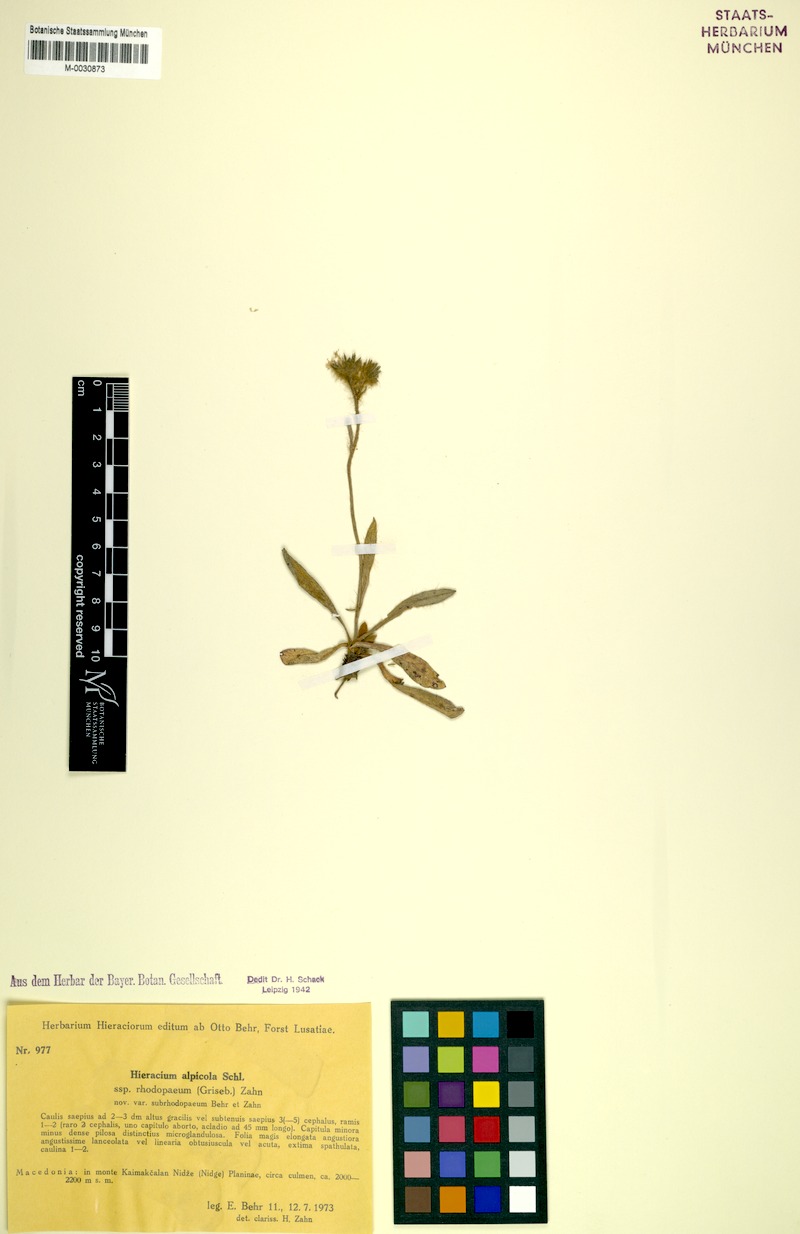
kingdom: Plantae
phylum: Tracheophyta
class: Magnoliopsida
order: Asterales
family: Asteraceae
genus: Pilosella
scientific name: Pilosella alpicola
